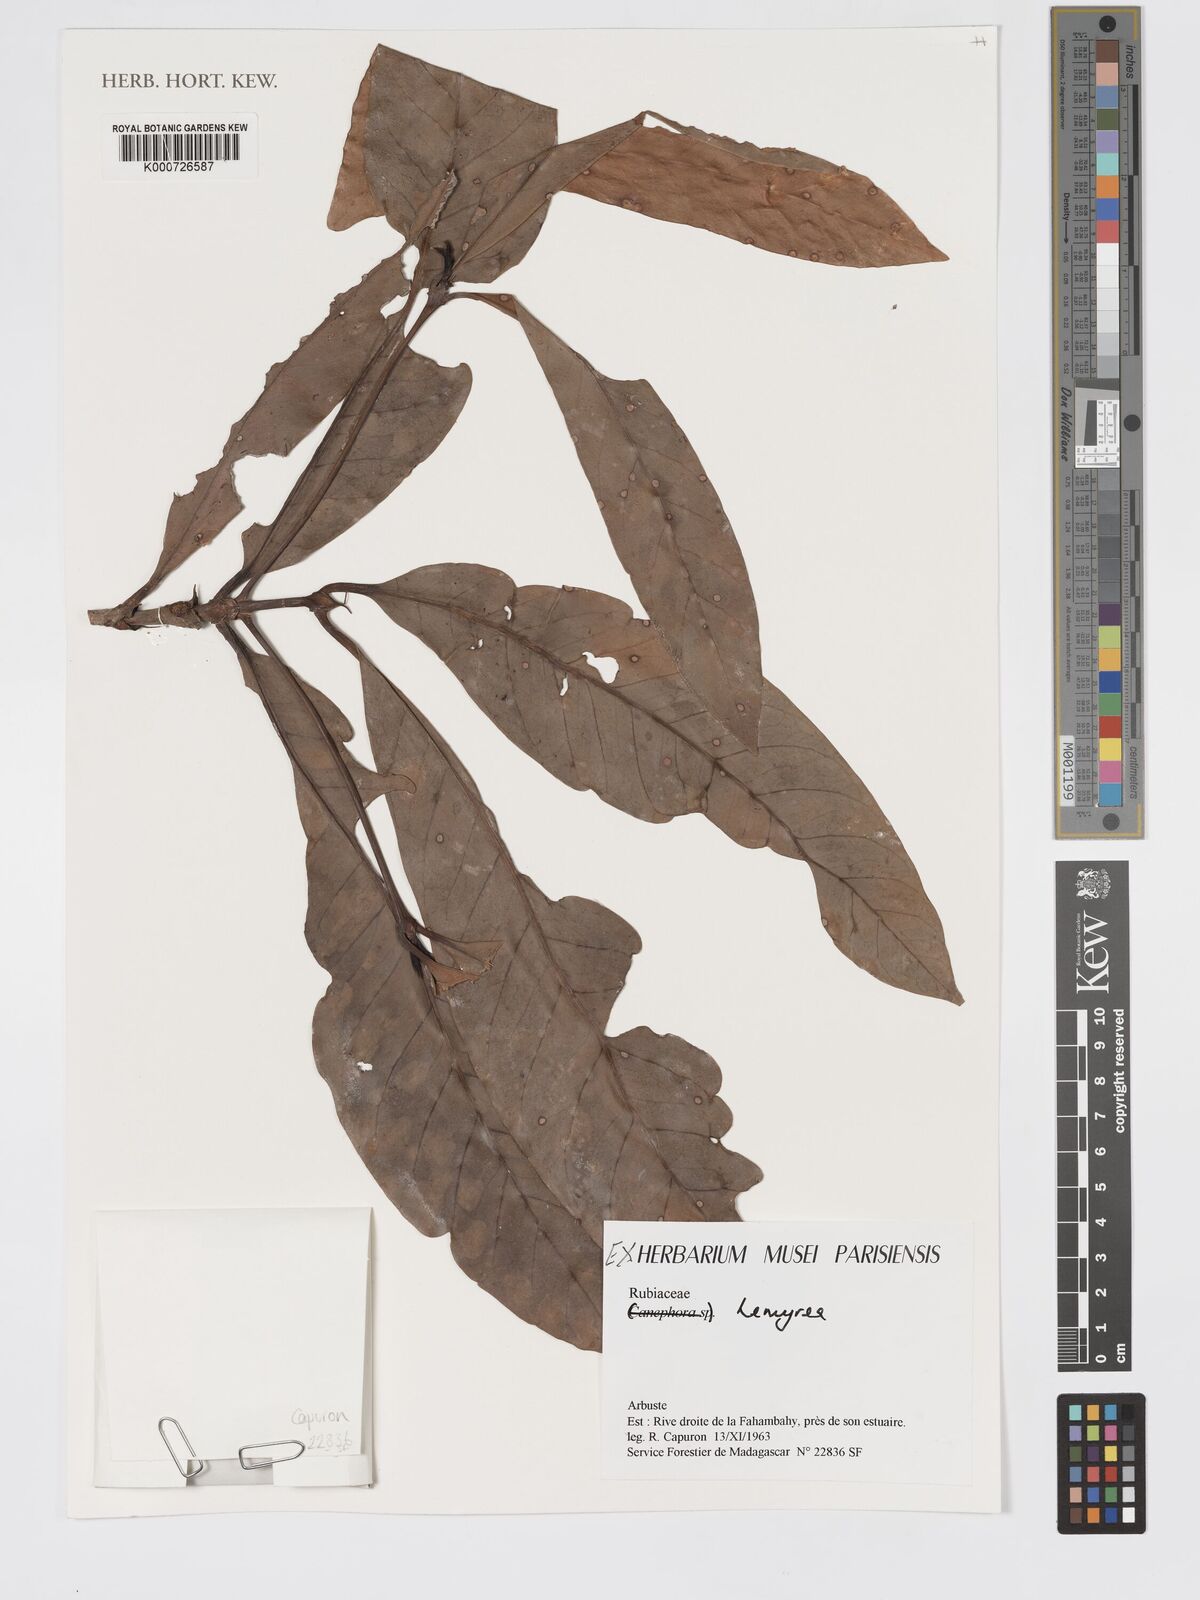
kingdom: Plantae
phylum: Tracheophyta
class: Magnoliopsida
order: Gentianales
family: Rubiaceae
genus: Lemyrea
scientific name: Lemyrea
